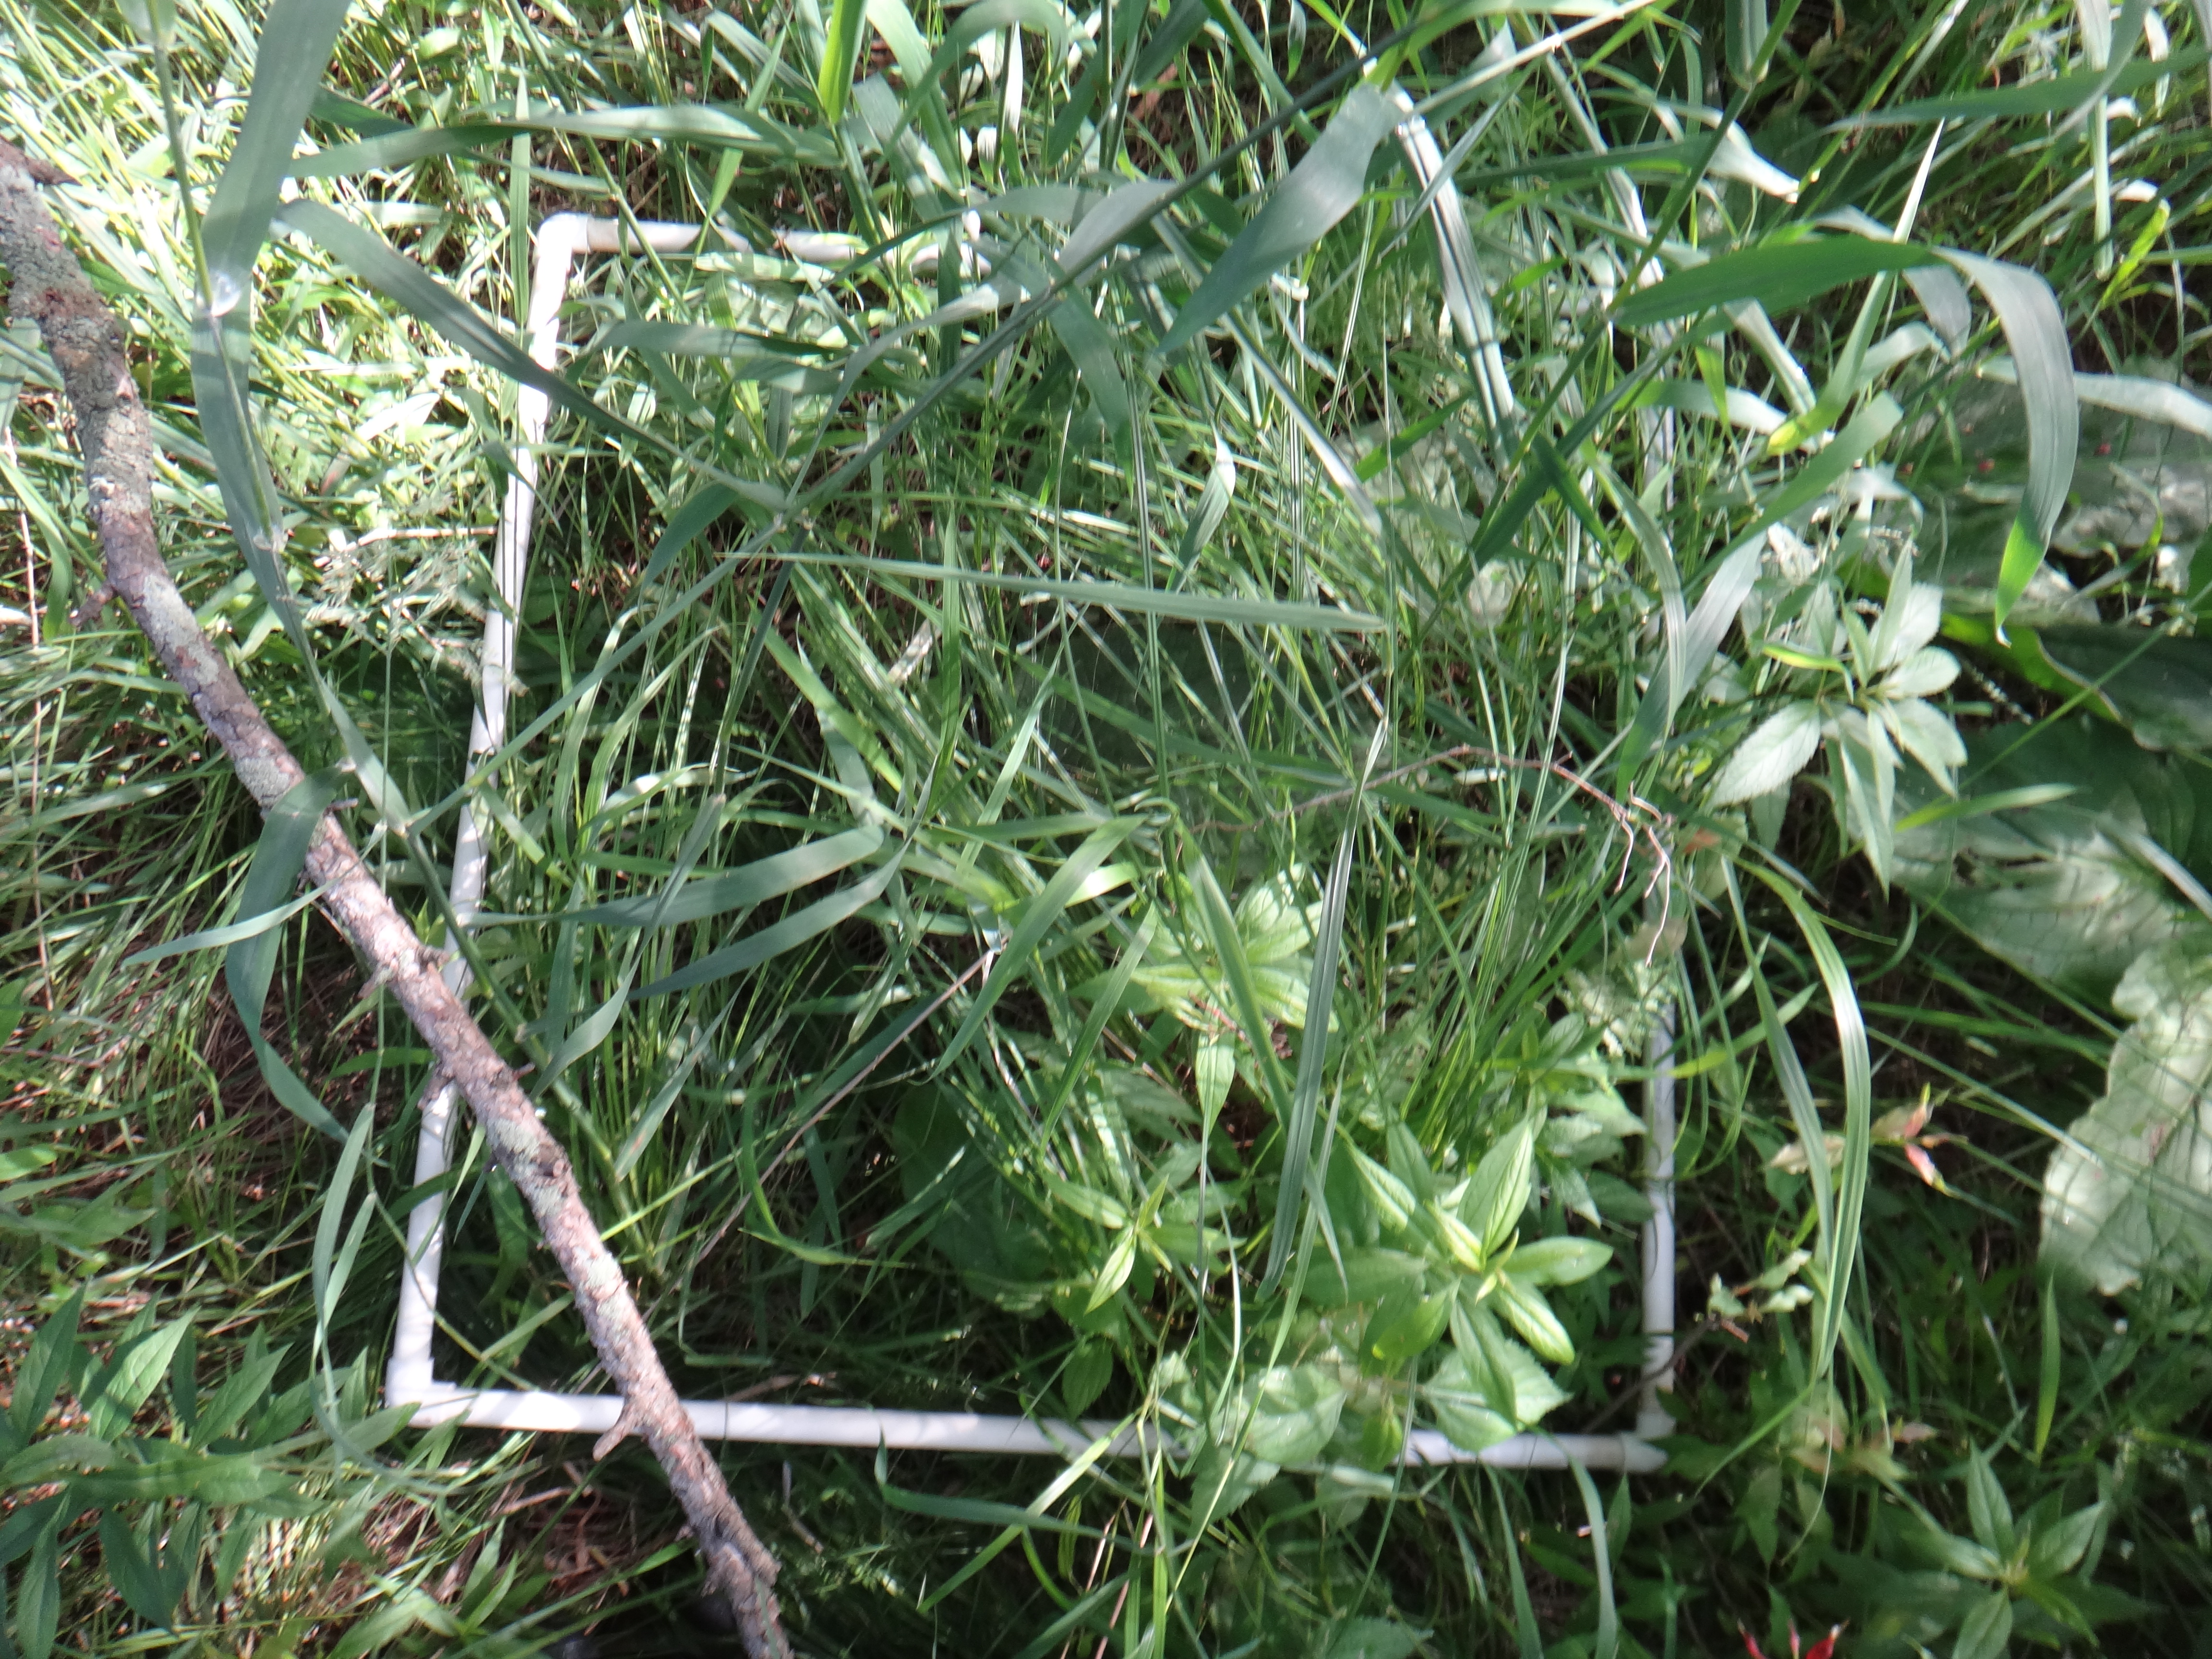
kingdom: Plantae
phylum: Tracheophyta
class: Magnoliopsida
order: Laurales
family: Lauraceae
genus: Lindera
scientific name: Lindera benzoin
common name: Spicebush
